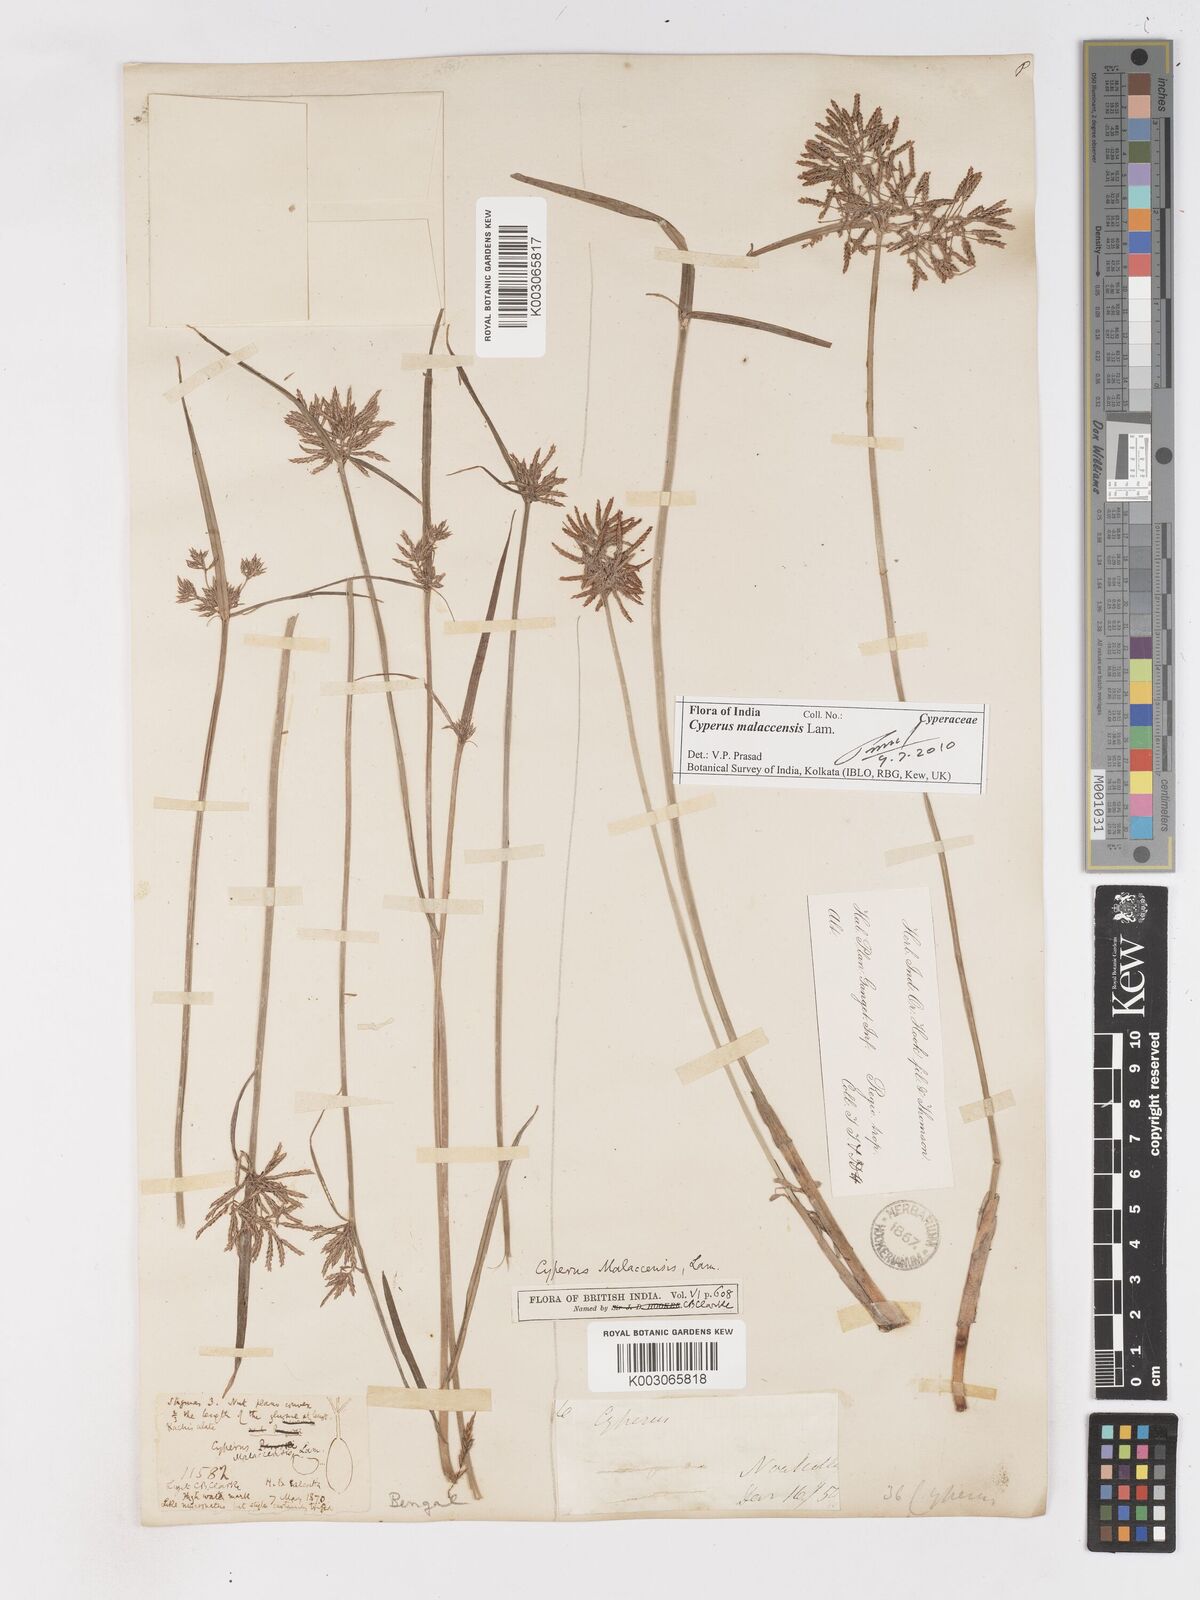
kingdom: Plantae
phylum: Tracheophyta
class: Liliopsida
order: Poales
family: Cyperaceae
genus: Cyperus
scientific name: Cyperus malaccensis
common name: Shichito matgrass
